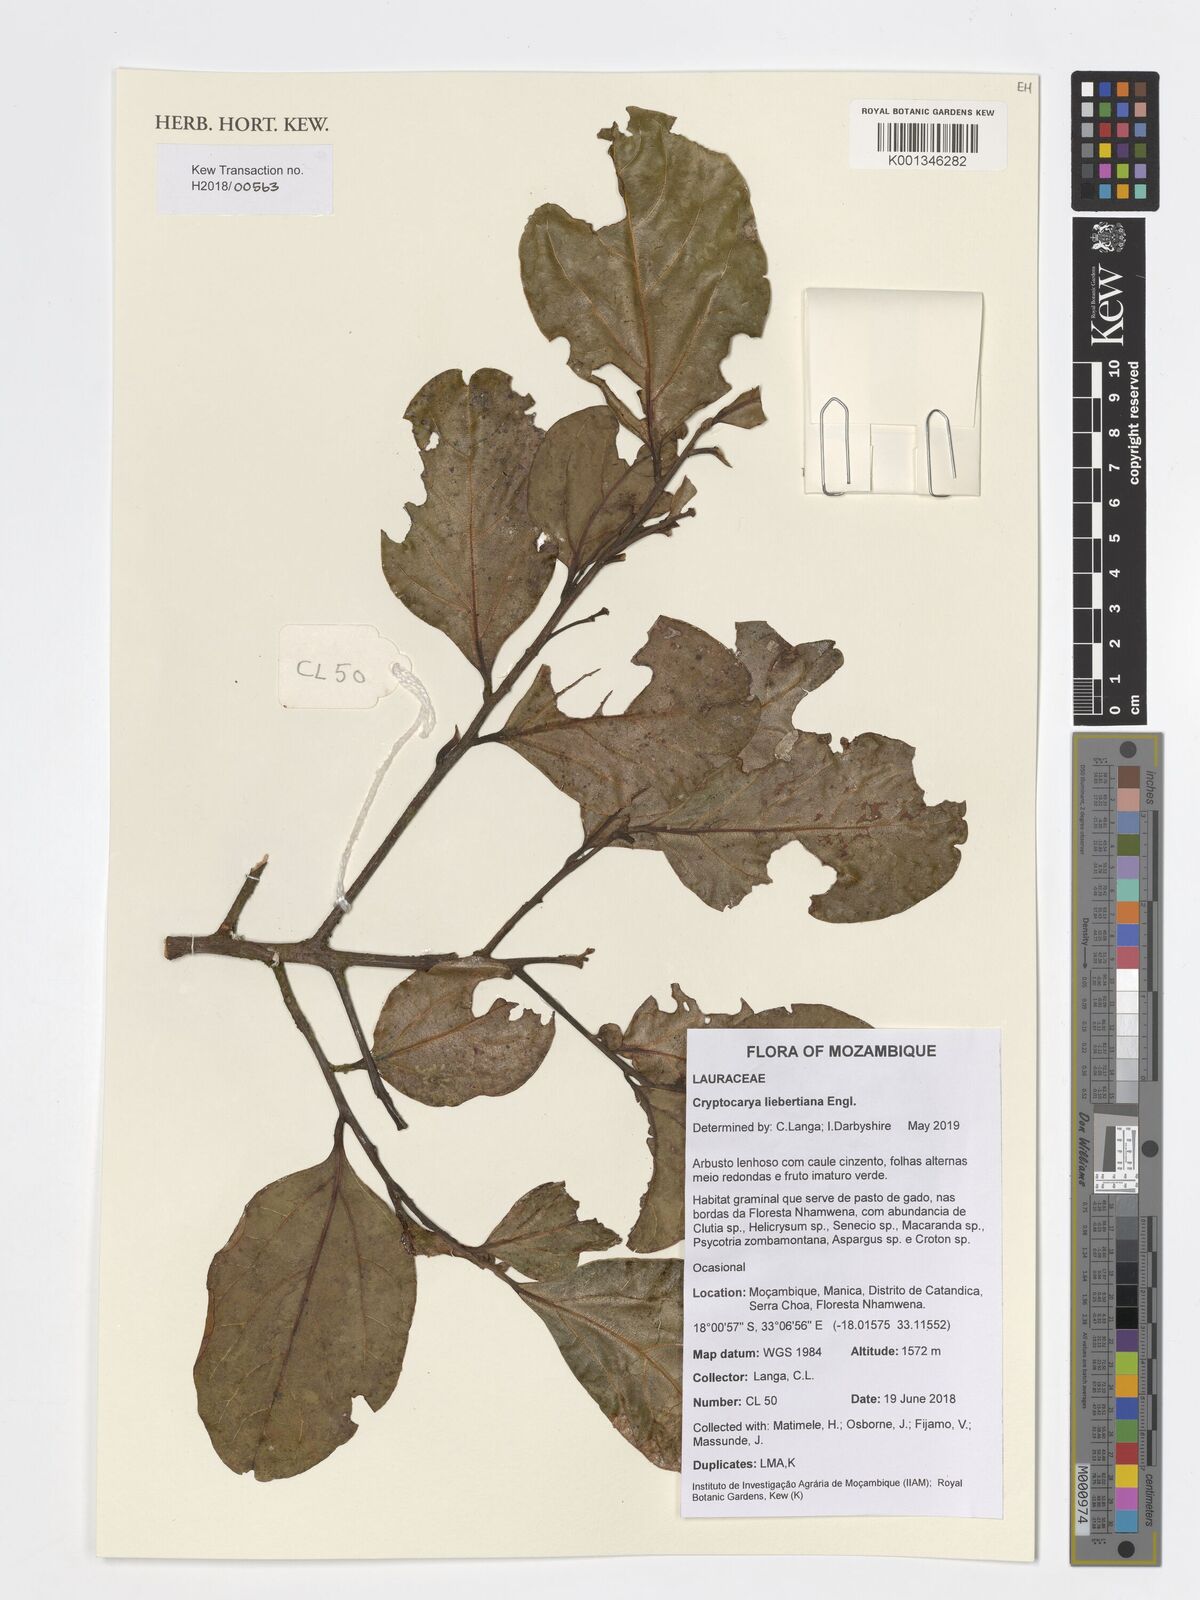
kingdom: Plantae
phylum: Tracheophyta
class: Magnoliopsida
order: Laurales
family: Lauraceae
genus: Cryptocarya
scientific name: Cryptocarya liebertiana
